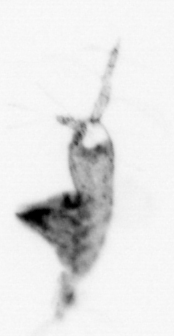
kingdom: Animalia
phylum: Arthropoda
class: Copepoda
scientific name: Copepoda
